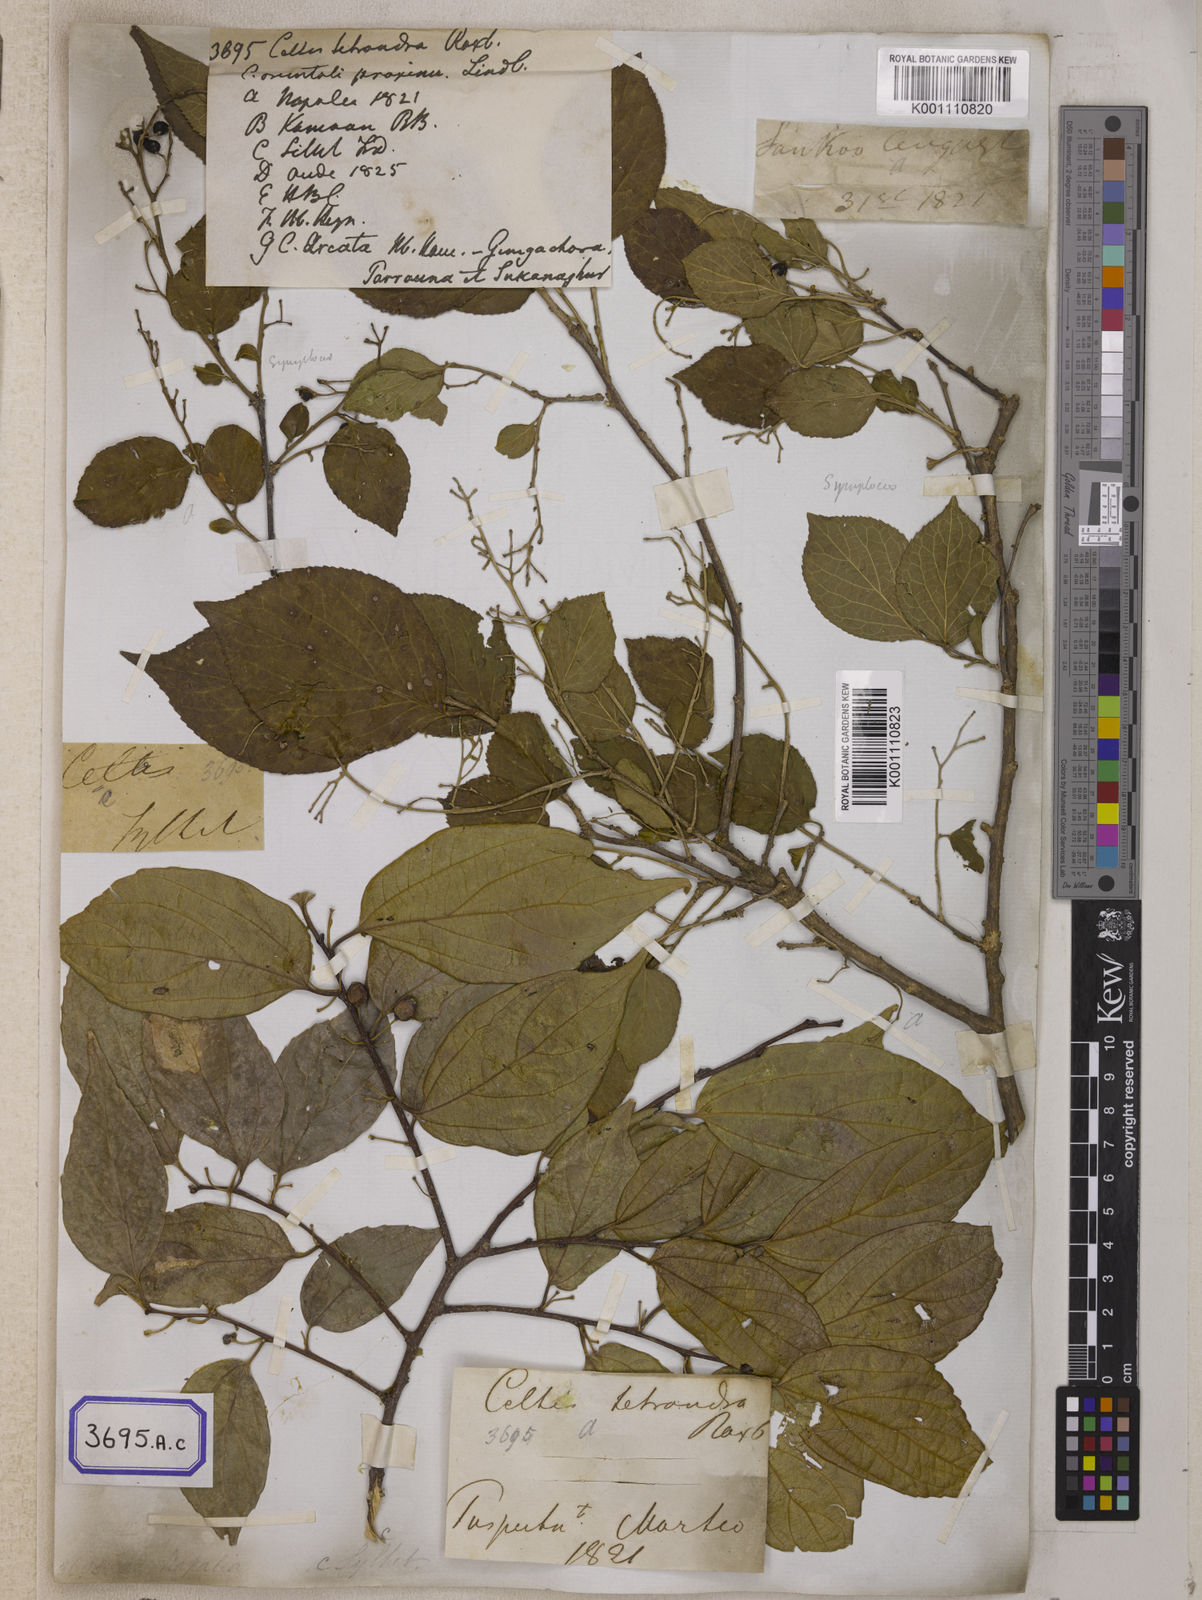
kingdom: Plantae
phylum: Tracheophyta
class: Magnoliopsida
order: Rosales
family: Cannabaceae
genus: Celtis
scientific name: Celtis
